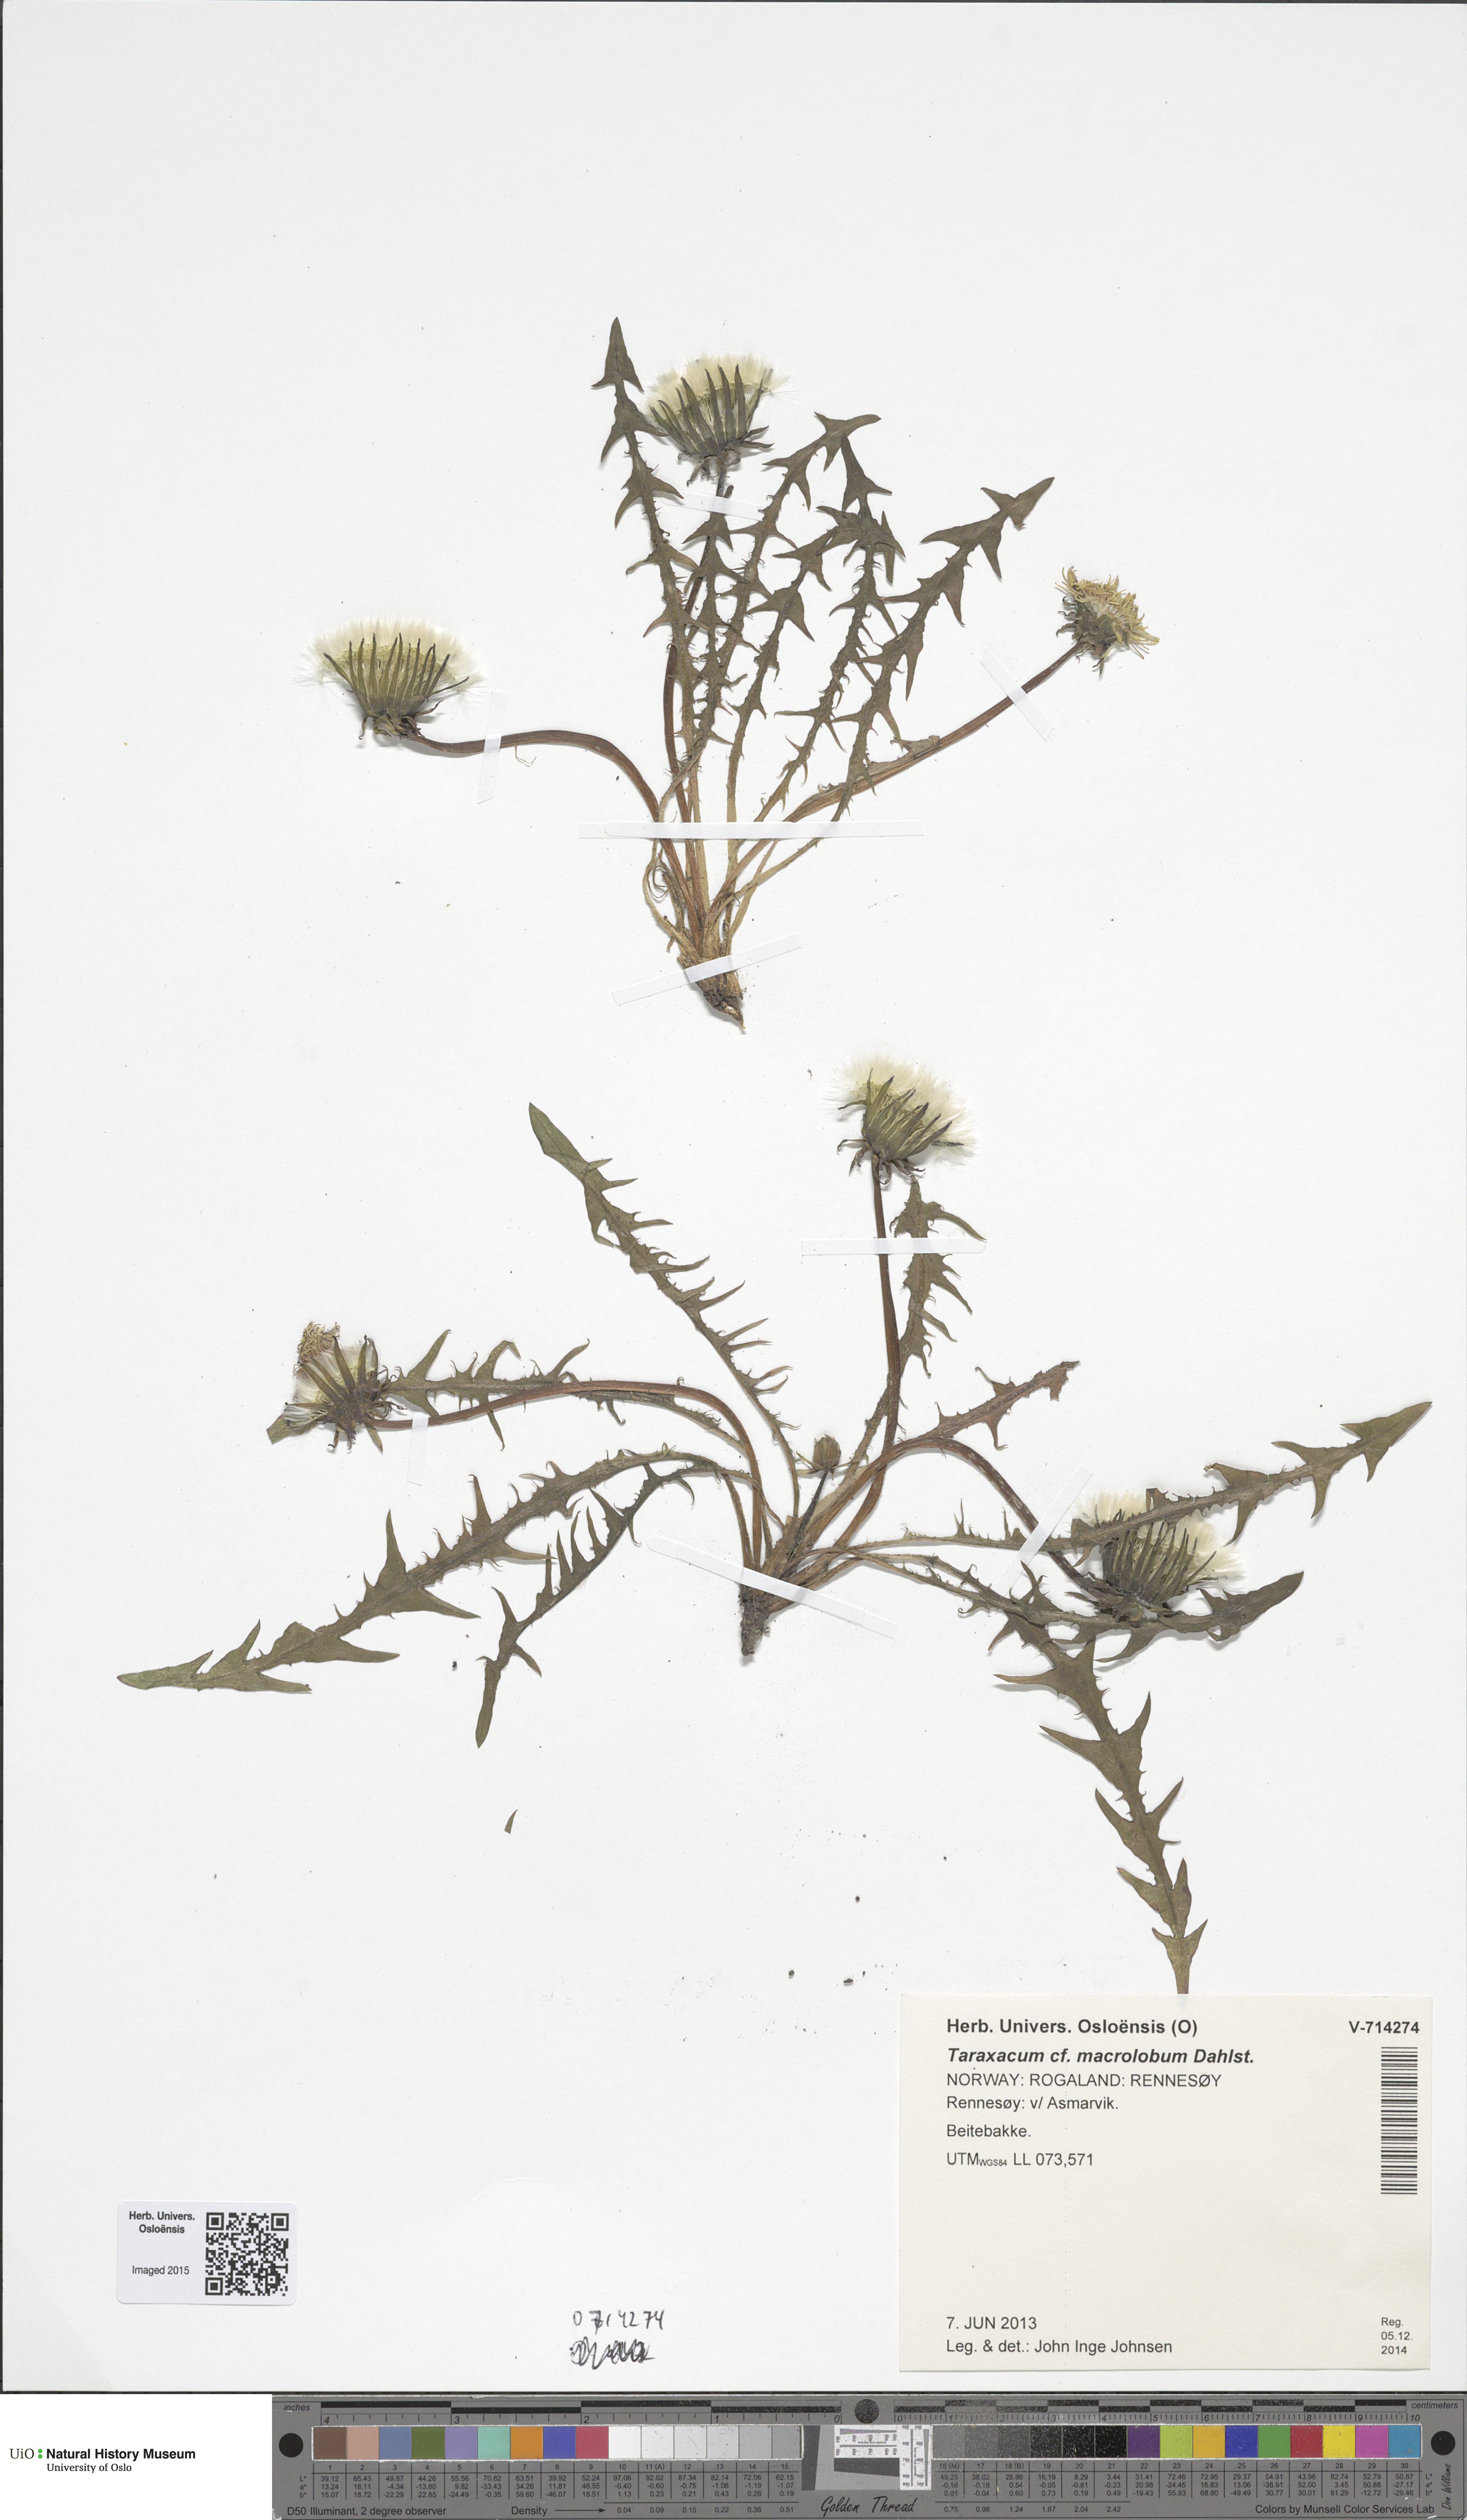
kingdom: Plantae
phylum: Tracheophyta
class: Magnoliopsida
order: Asterales
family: Asteraceae
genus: Taraxacum
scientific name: Taraxacum macrolobum
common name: Incise-lobed dandelion
